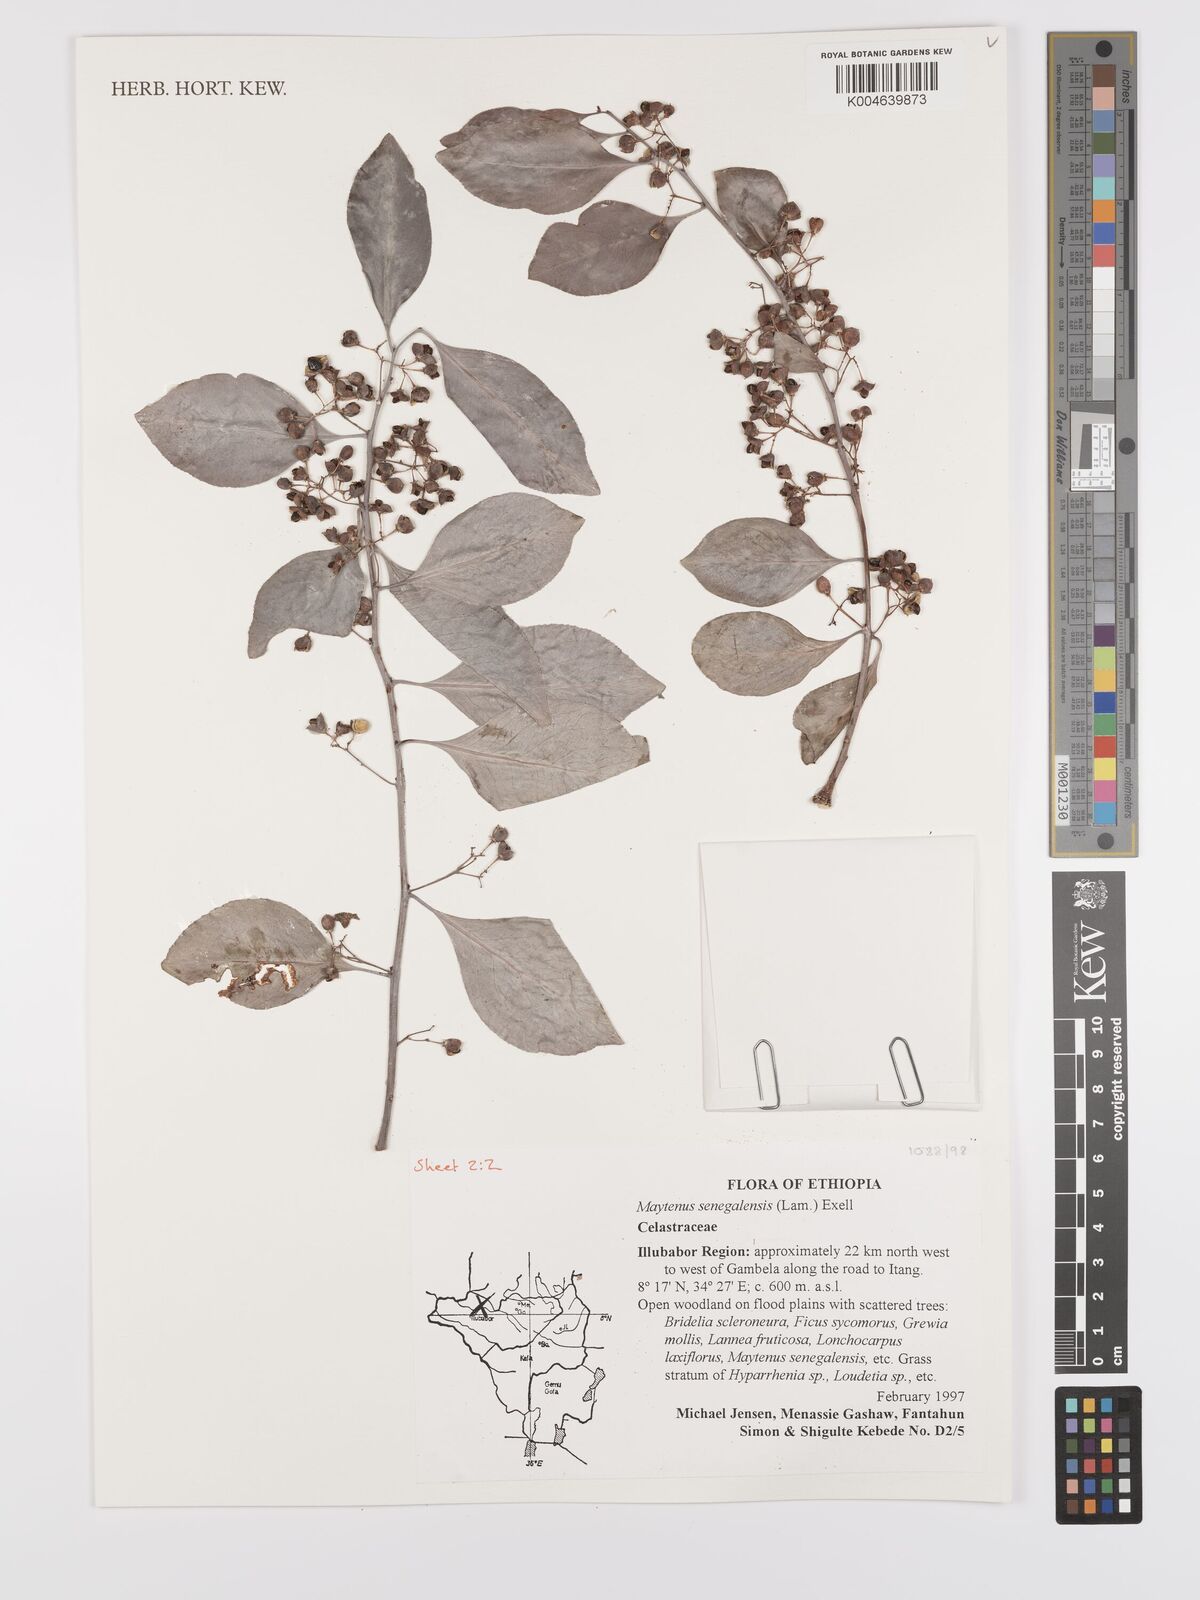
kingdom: Plantae
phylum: Tracheophyta
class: Magnoliopsida
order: Celastrales
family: Celastraceae
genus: Gymnosporia
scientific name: Gymnosporia senegalensis
